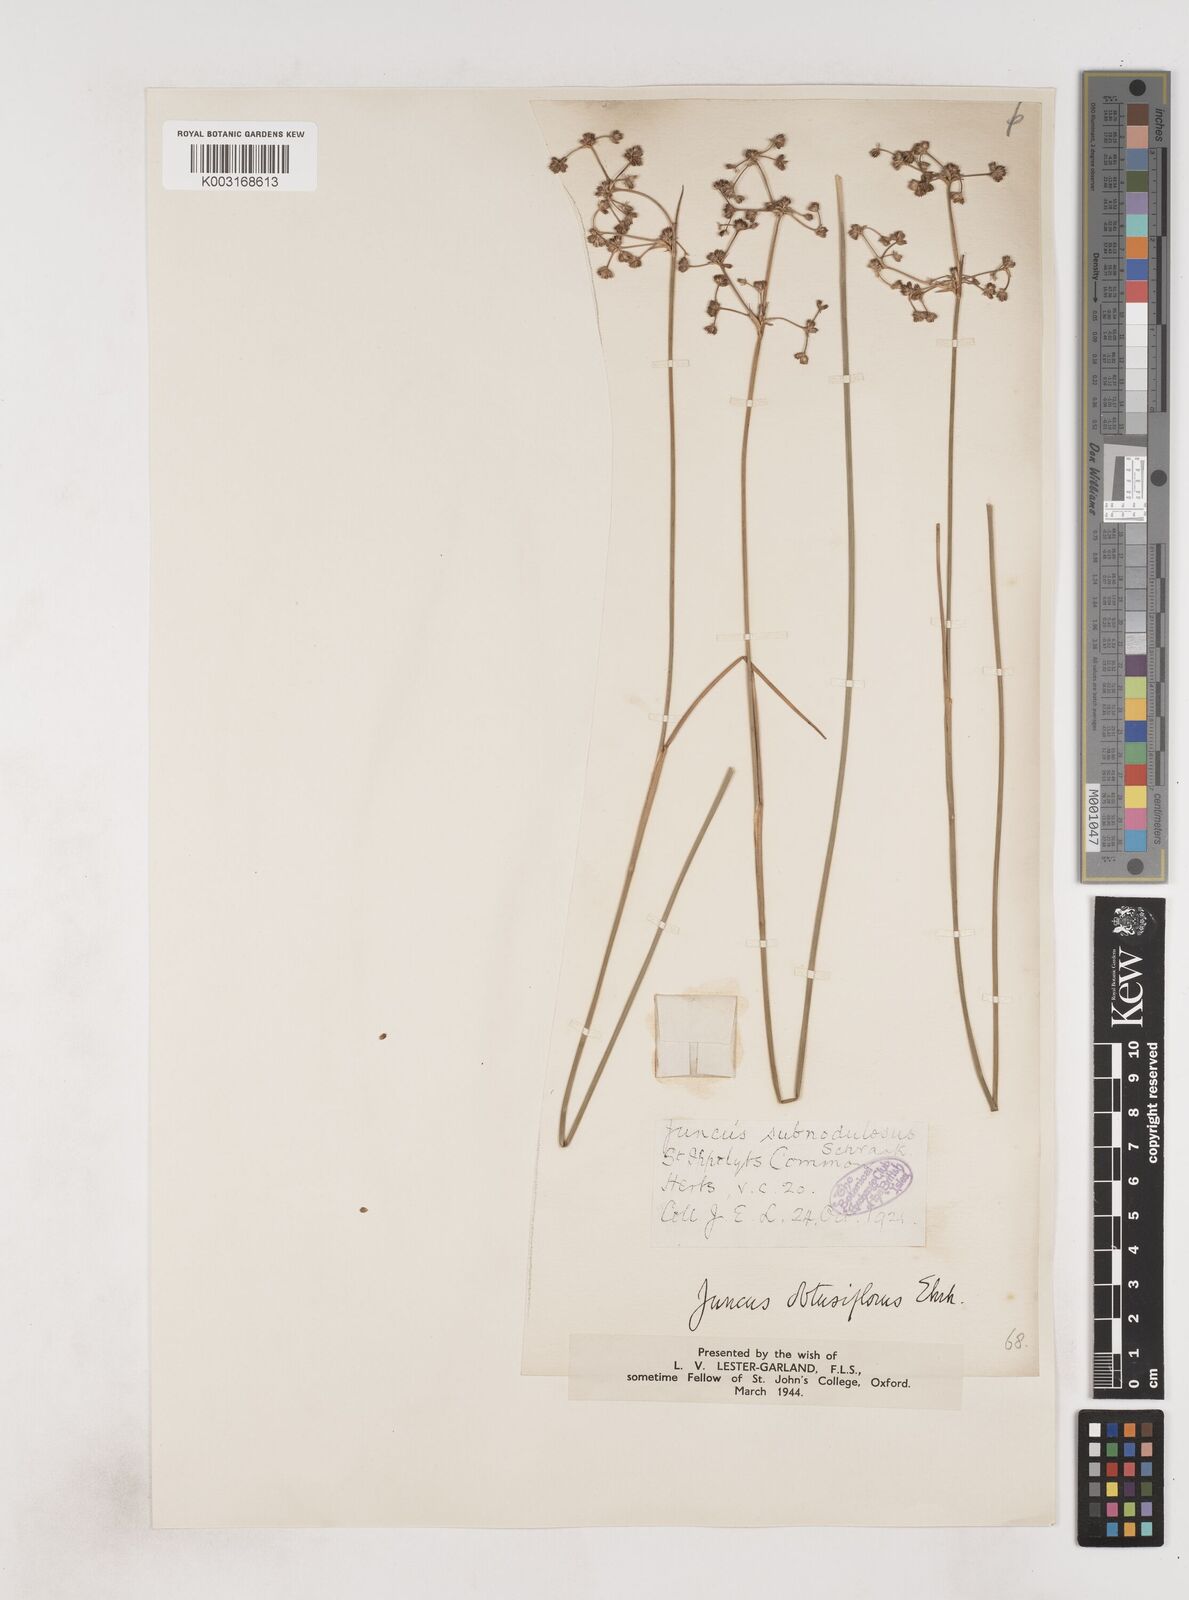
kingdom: Plantae
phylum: Tracheophyta
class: Liliopsida
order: Poales
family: Juncaceae
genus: Juncus
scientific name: Juncus subnodulosus
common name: Blunt-flowered rush
